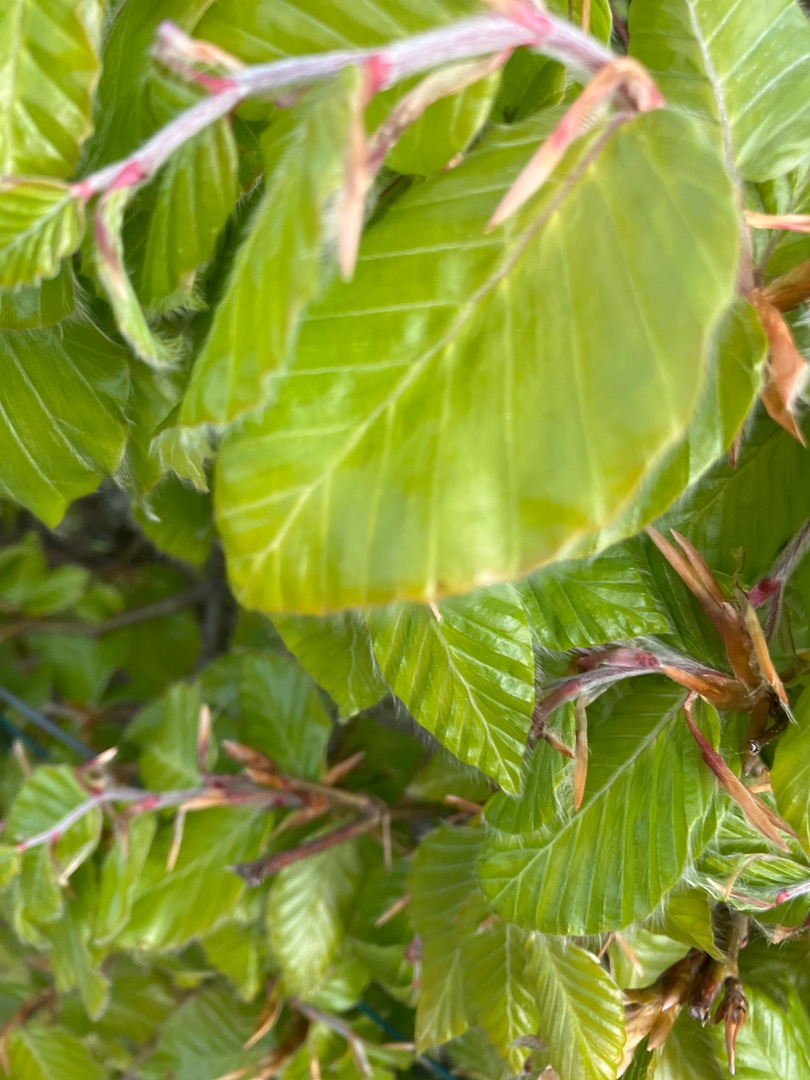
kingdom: Plantae
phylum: Tracheophyta
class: Magnoliopsida
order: Fagales
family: Fagaceae
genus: Fagus
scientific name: Fagus sylvatica
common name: Bøg
